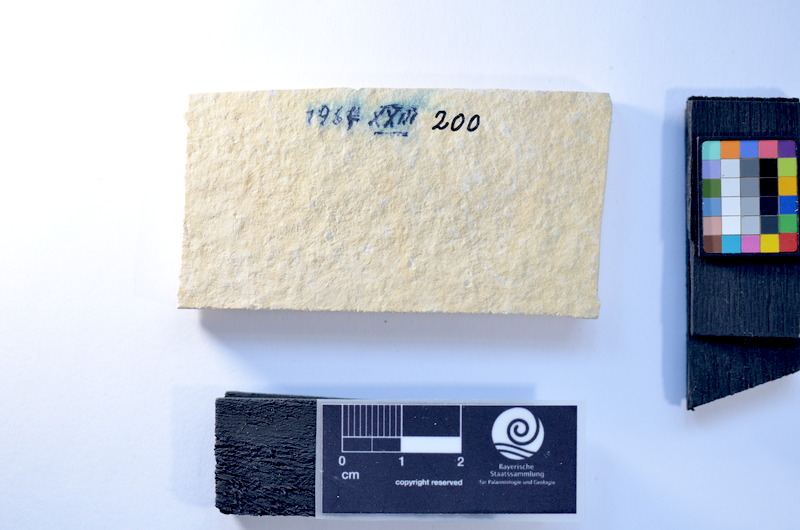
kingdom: Animalia
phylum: Chordata
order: Salmoniformes
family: Orthogonikleithridae
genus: Leptolepides
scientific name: Leptolepides
